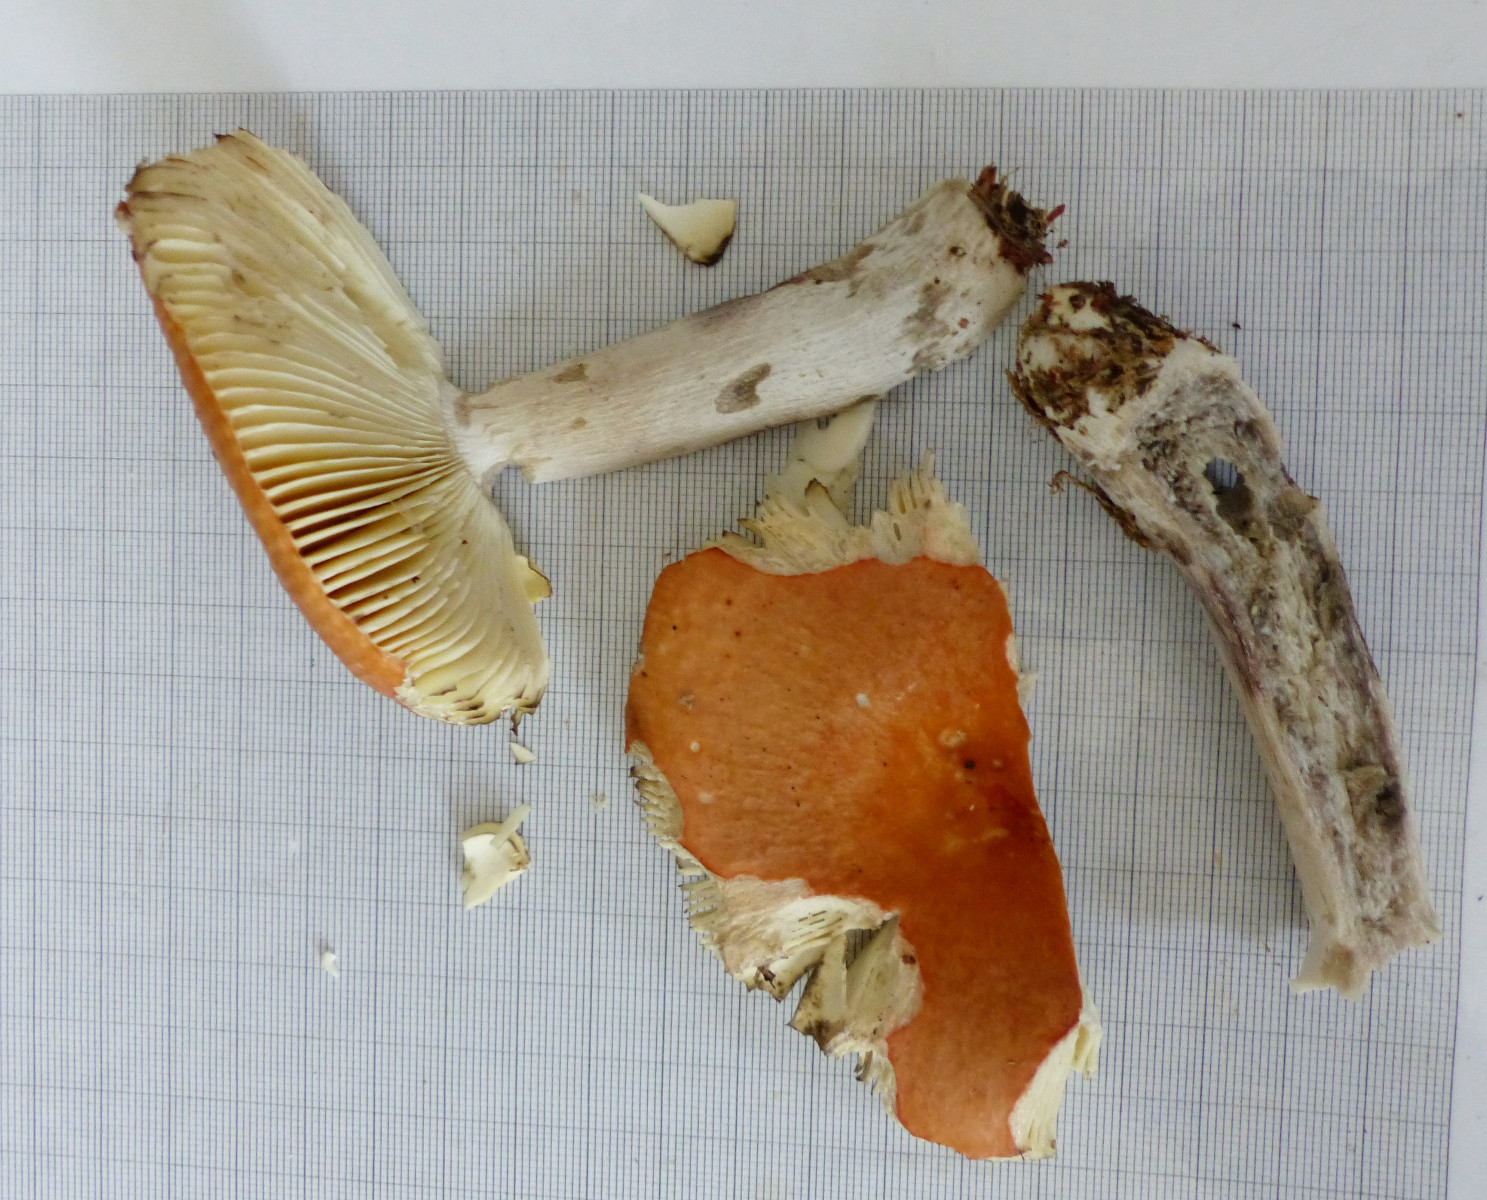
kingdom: Fungi
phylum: Basidiomycota
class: Agaricomycetes
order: Russulales
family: Russulaceae
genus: Russula
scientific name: Russula decolorans
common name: afblegende skørhat
